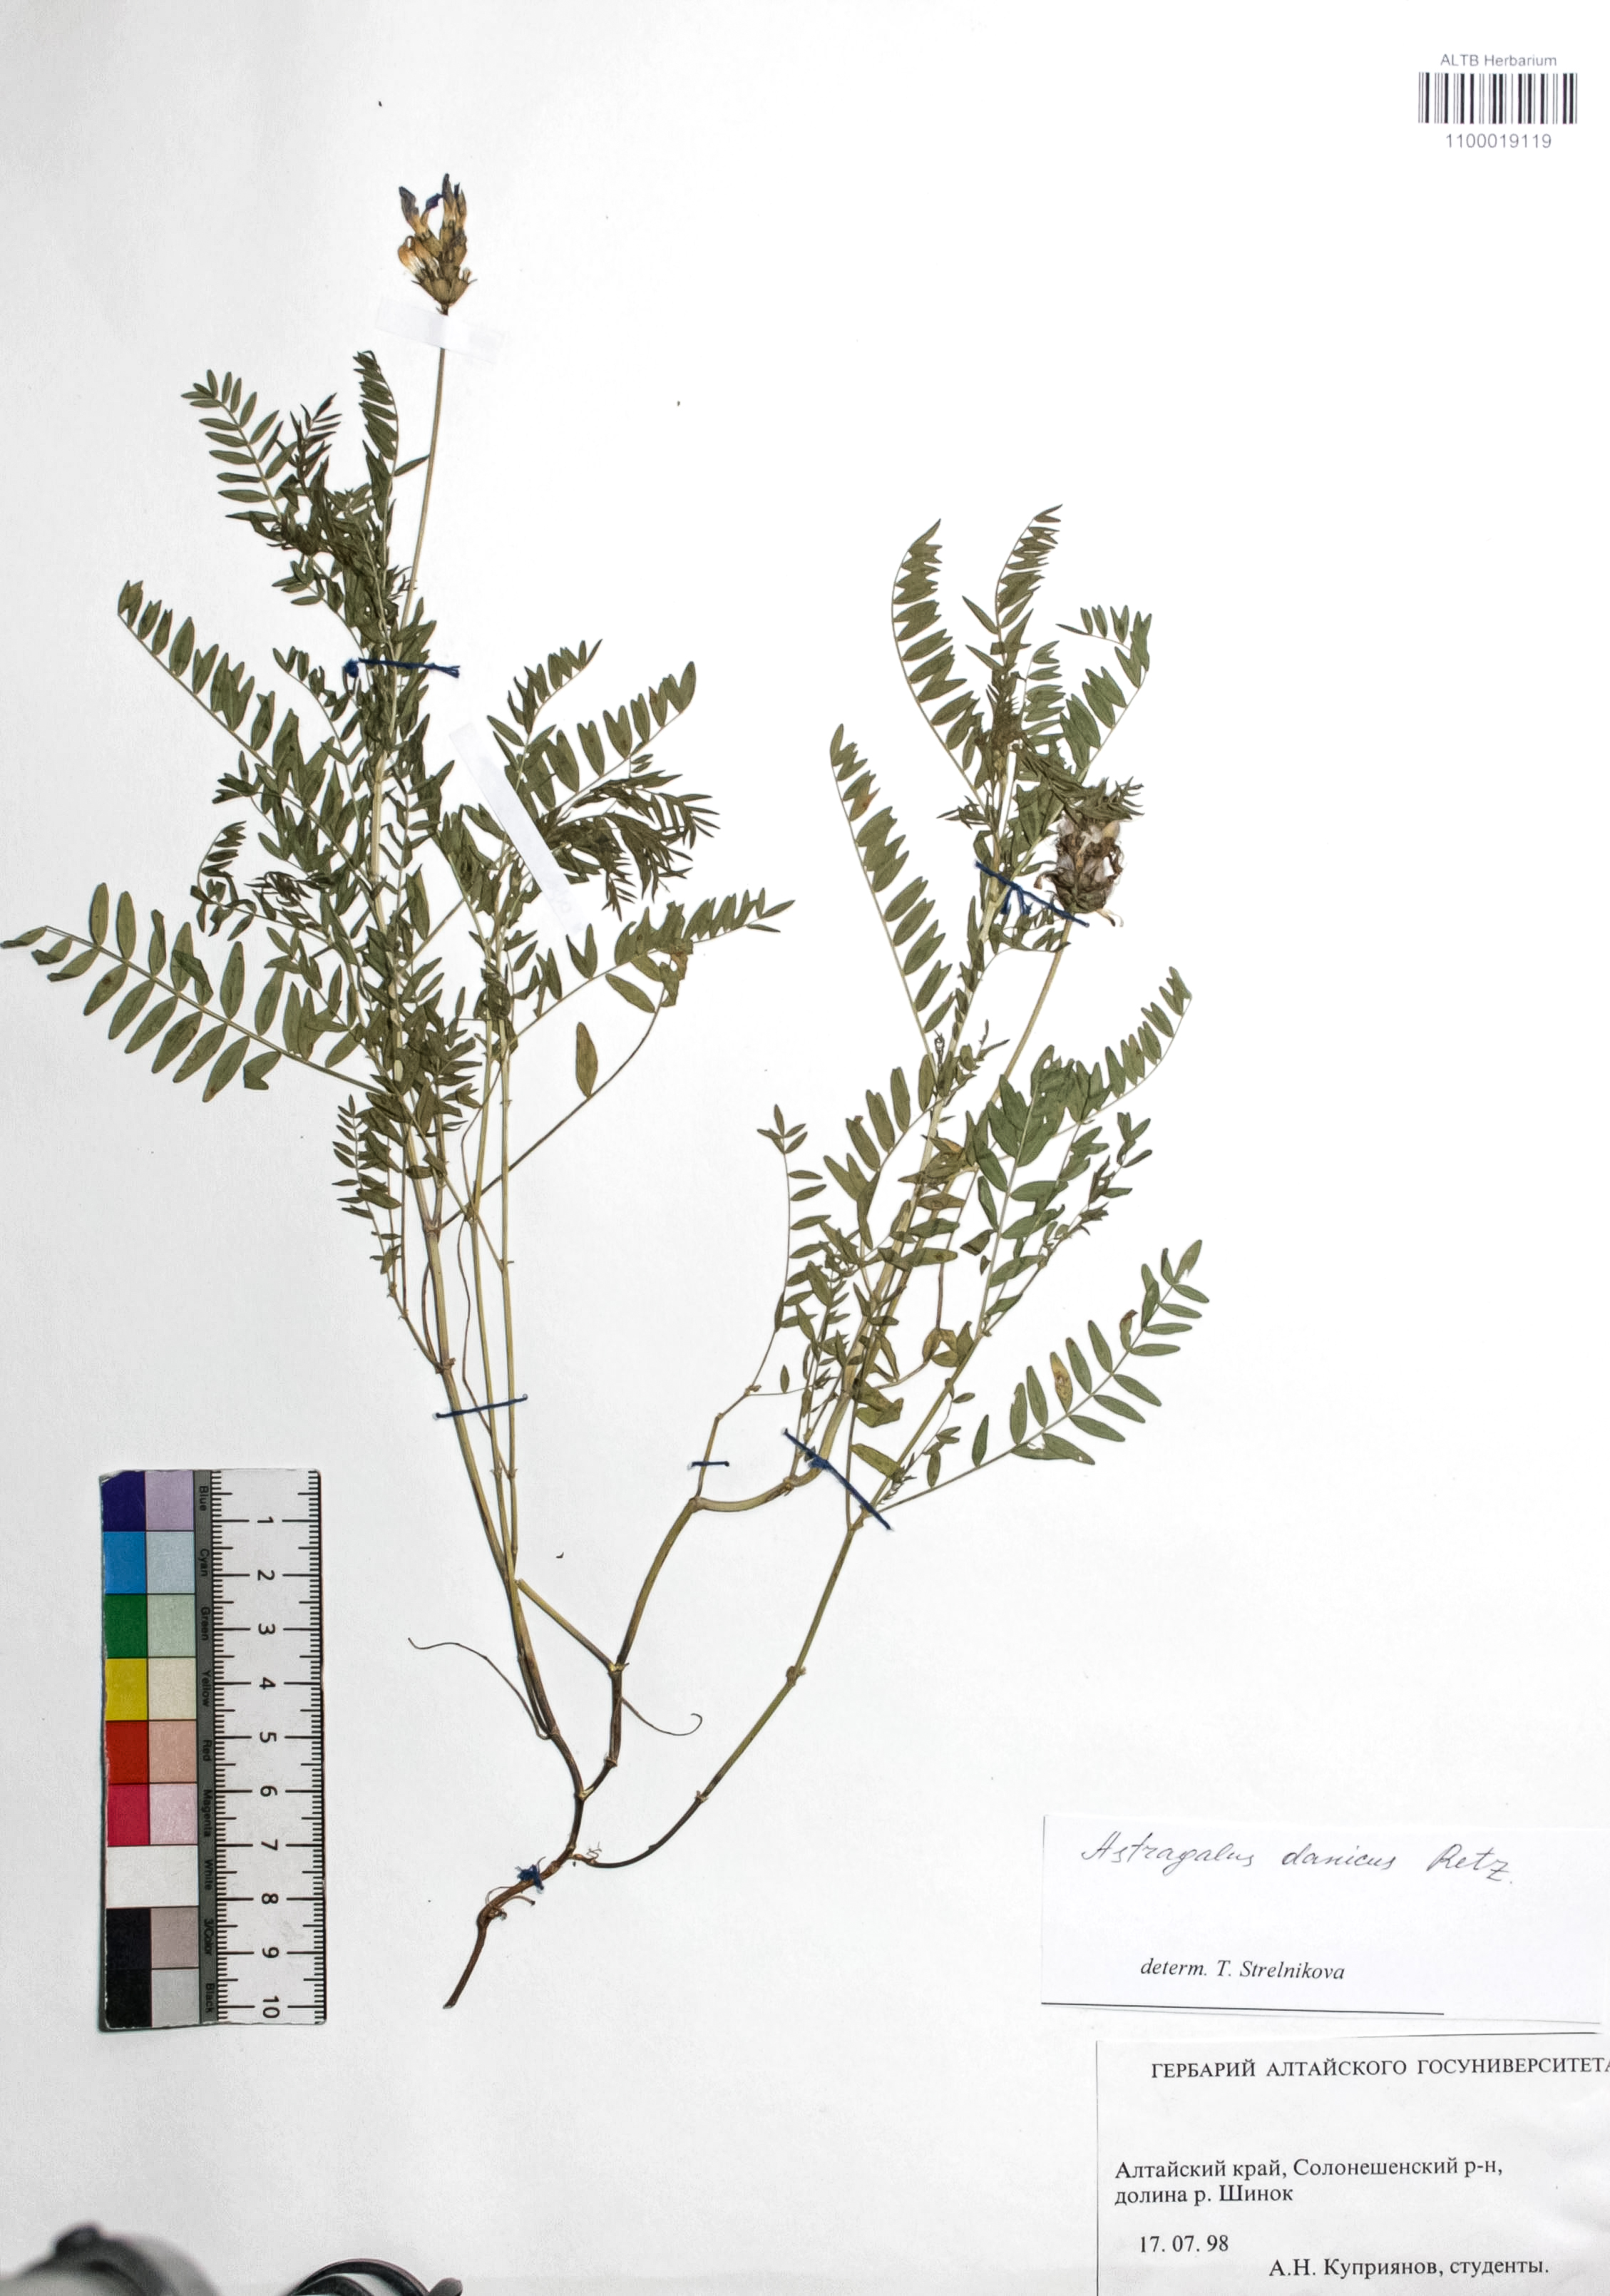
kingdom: Plantae
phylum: Tracheophyta
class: Magnoliopsida
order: Fabales
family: Fabaceae
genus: Astragalus
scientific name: Astragalus danicus
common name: Purple milk-vetch
